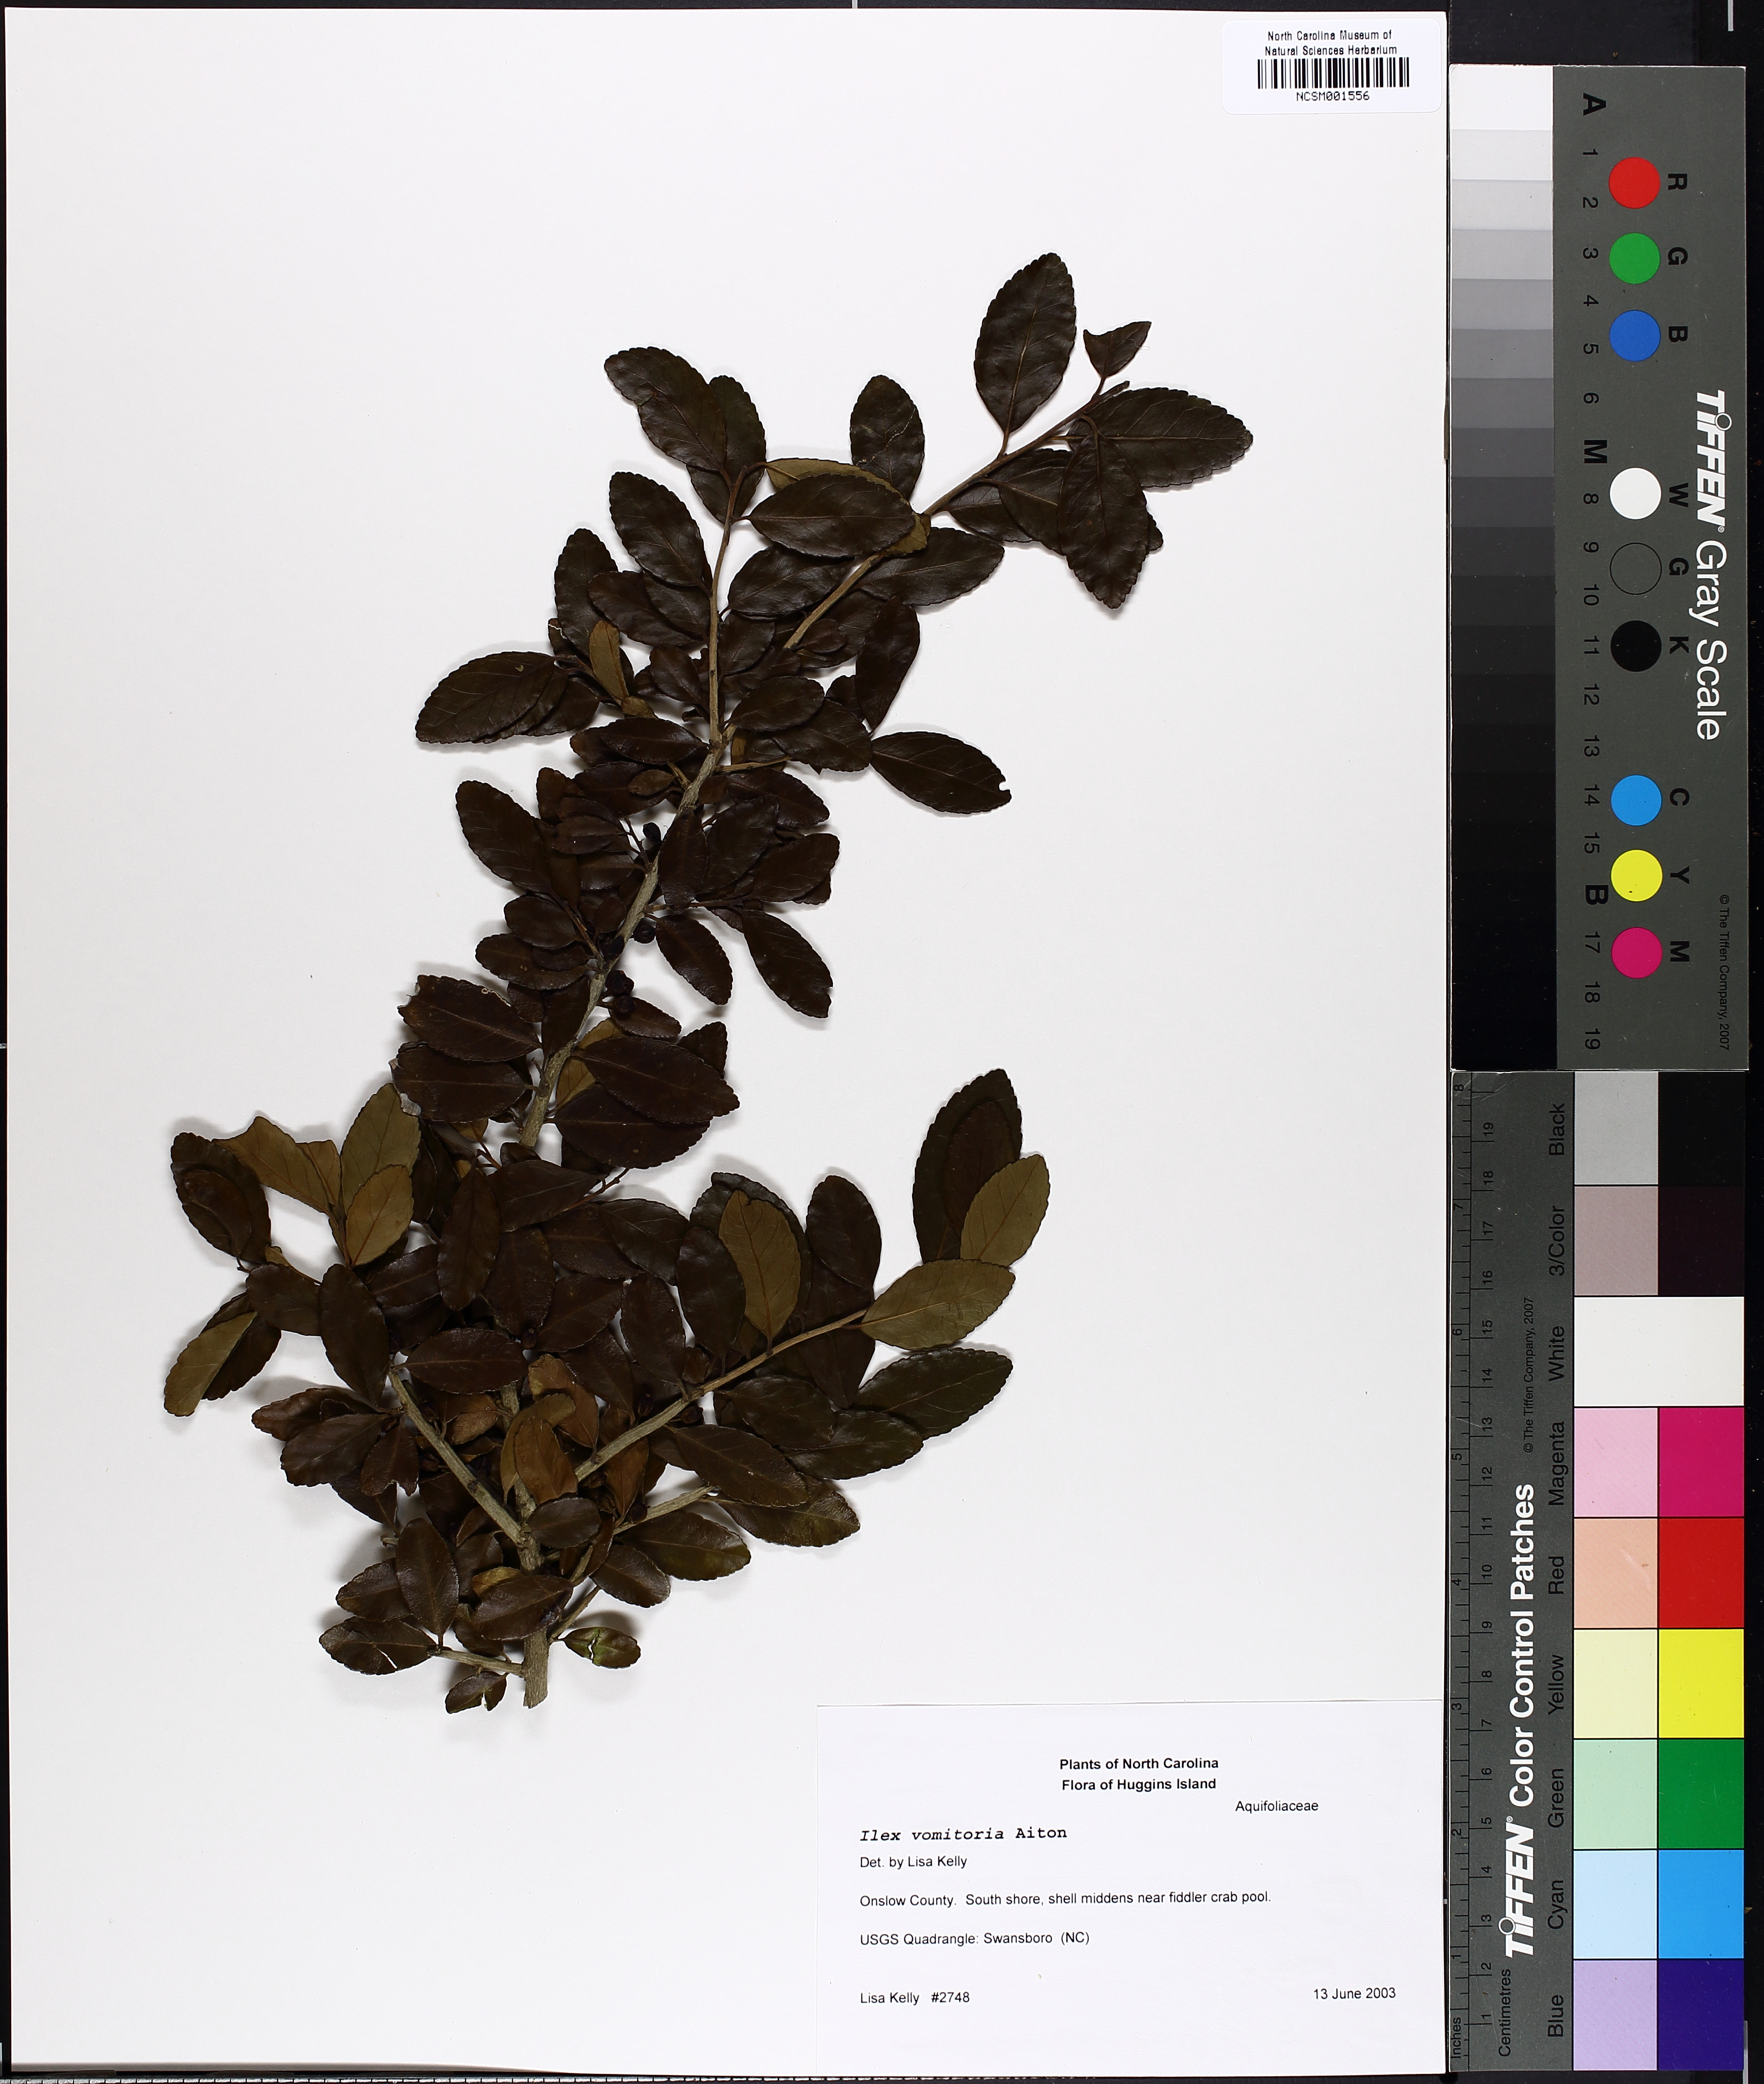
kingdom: Plantae
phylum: Tracheophyta
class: Magnoliopsida
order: Aquifoliales
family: Aquifoliaceae
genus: Ilex
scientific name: Ilex vomitoria
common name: Yaupon holly
